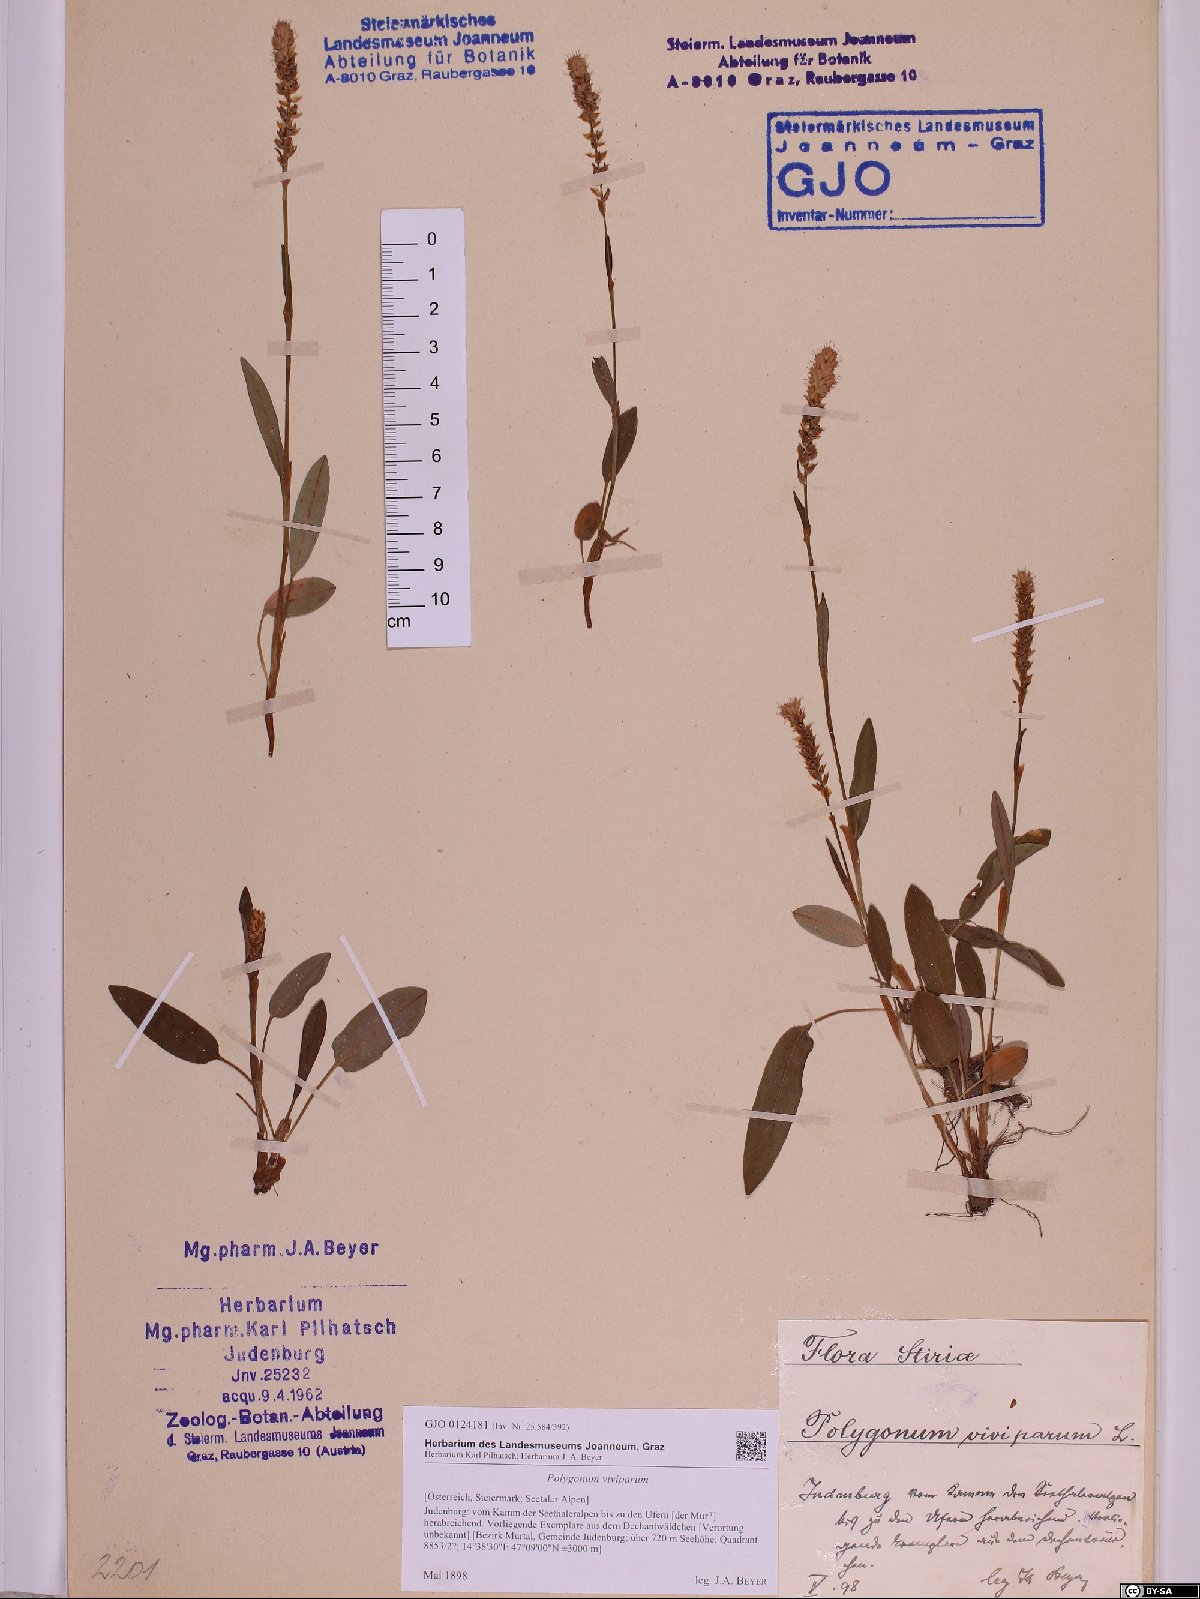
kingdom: Plantae
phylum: Tracheophyta
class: Magnoliopsida
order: Caryophyllales
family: Polygonaceae
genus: Bistorta
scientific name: Bistorta vivipara
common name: Alpine bistort
